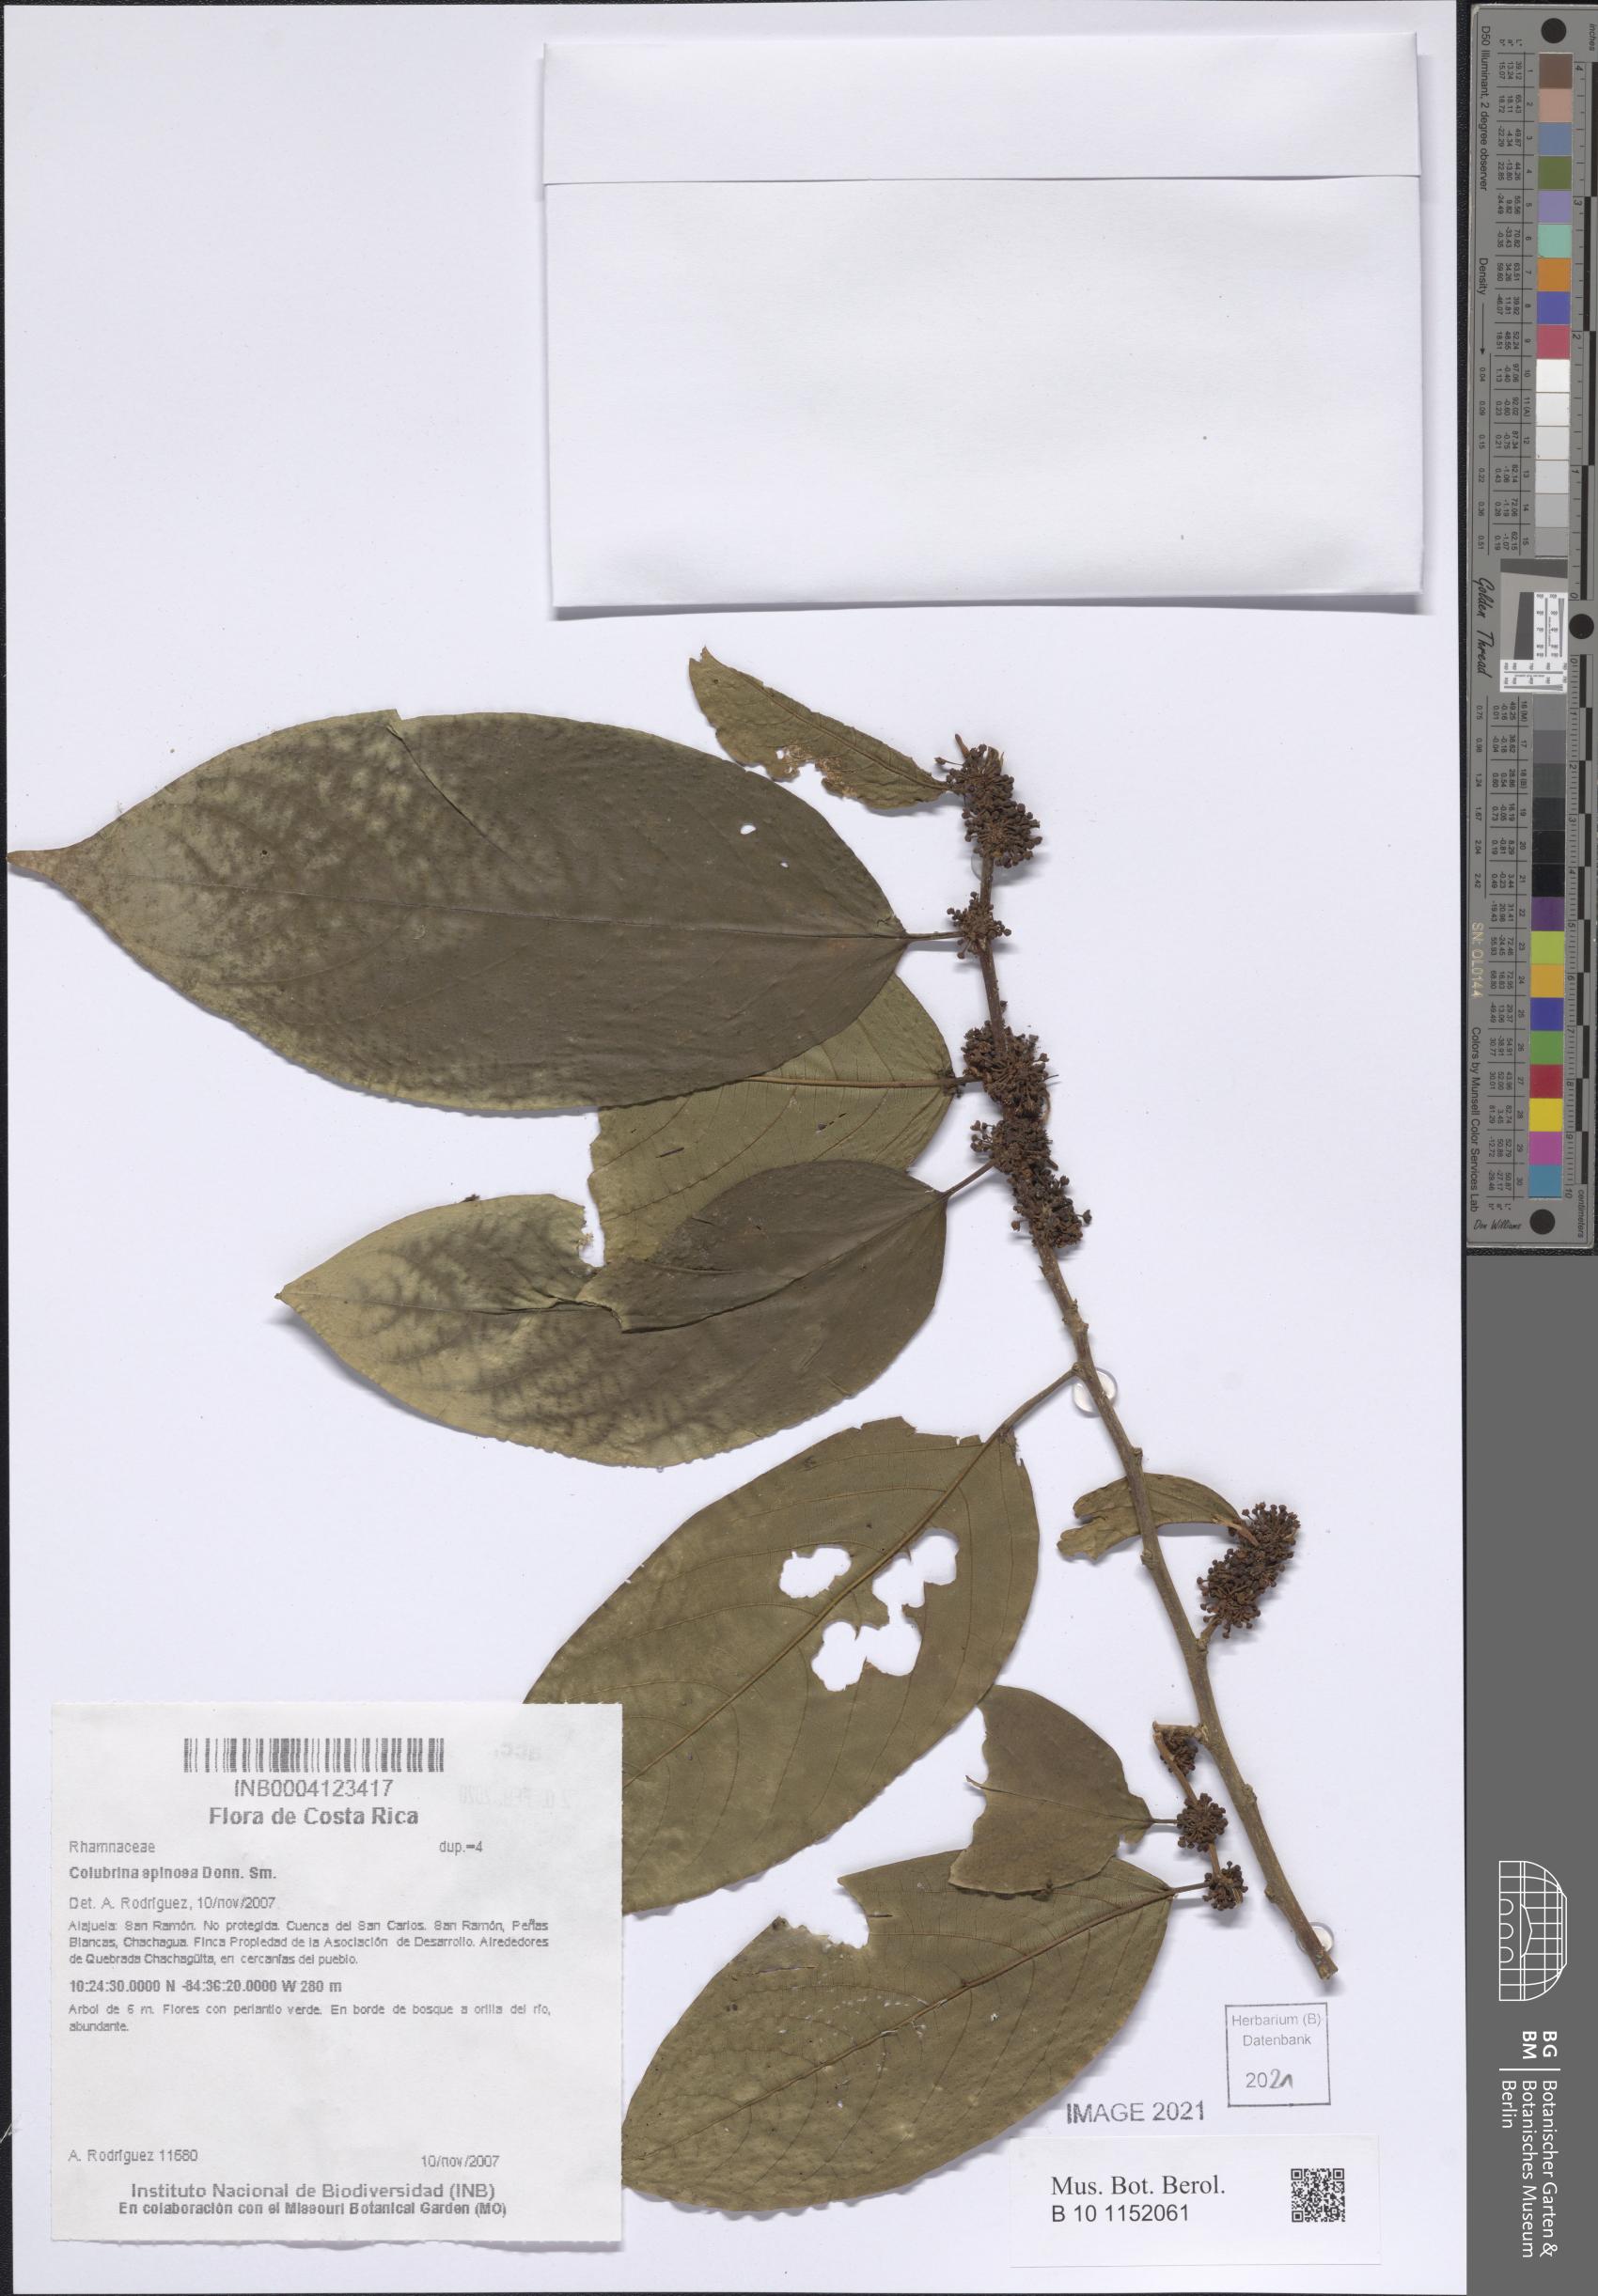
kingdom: Plantae
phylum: Tracheophyta
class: Magnoliopsida
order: Rosales
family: Rhamnaceae
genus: Colubrina
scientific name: Colubrina spinosa
